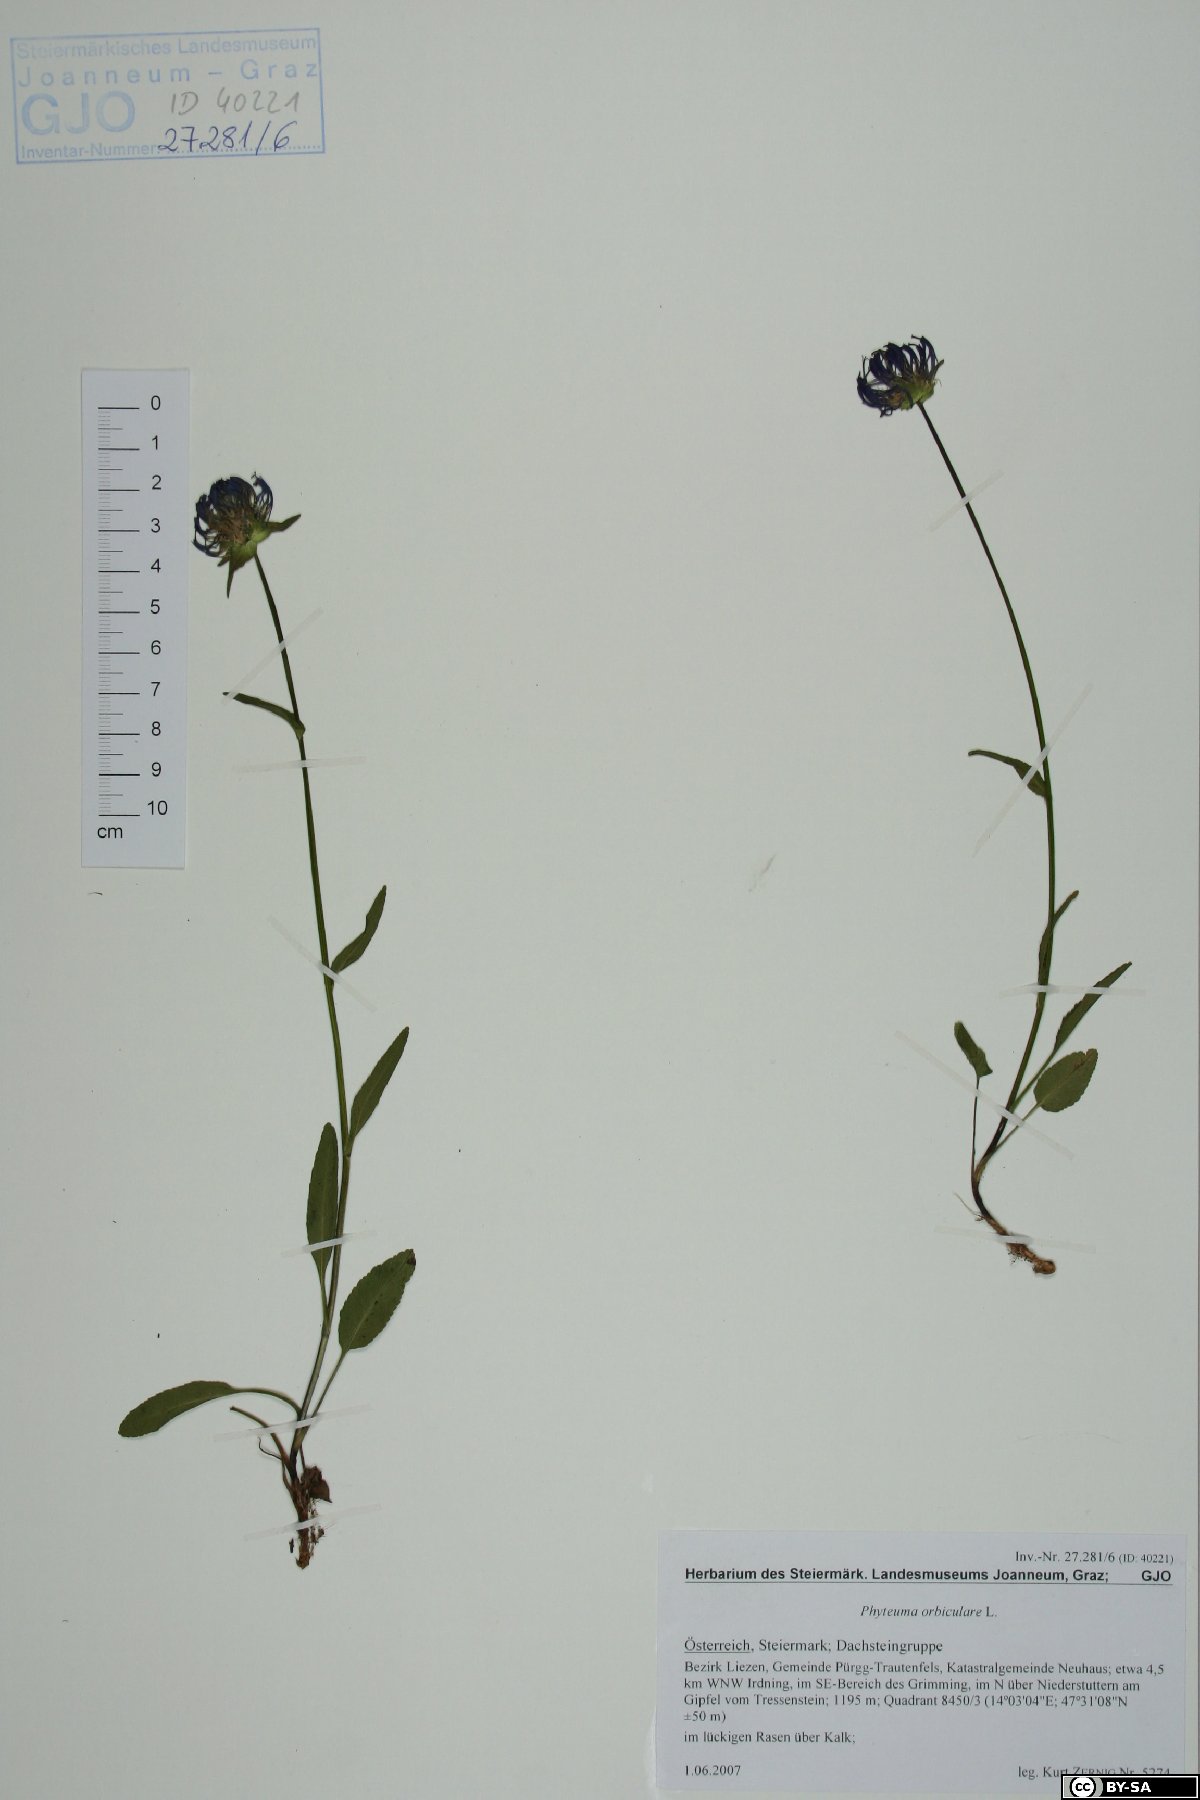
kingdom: Plantae
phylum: Tracheophyta
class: Magnoliopsida
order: Asterales
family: Campanulaceae
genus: Phyteuma
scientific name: Phyteuma orbiculare
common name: Round-headed rampion
